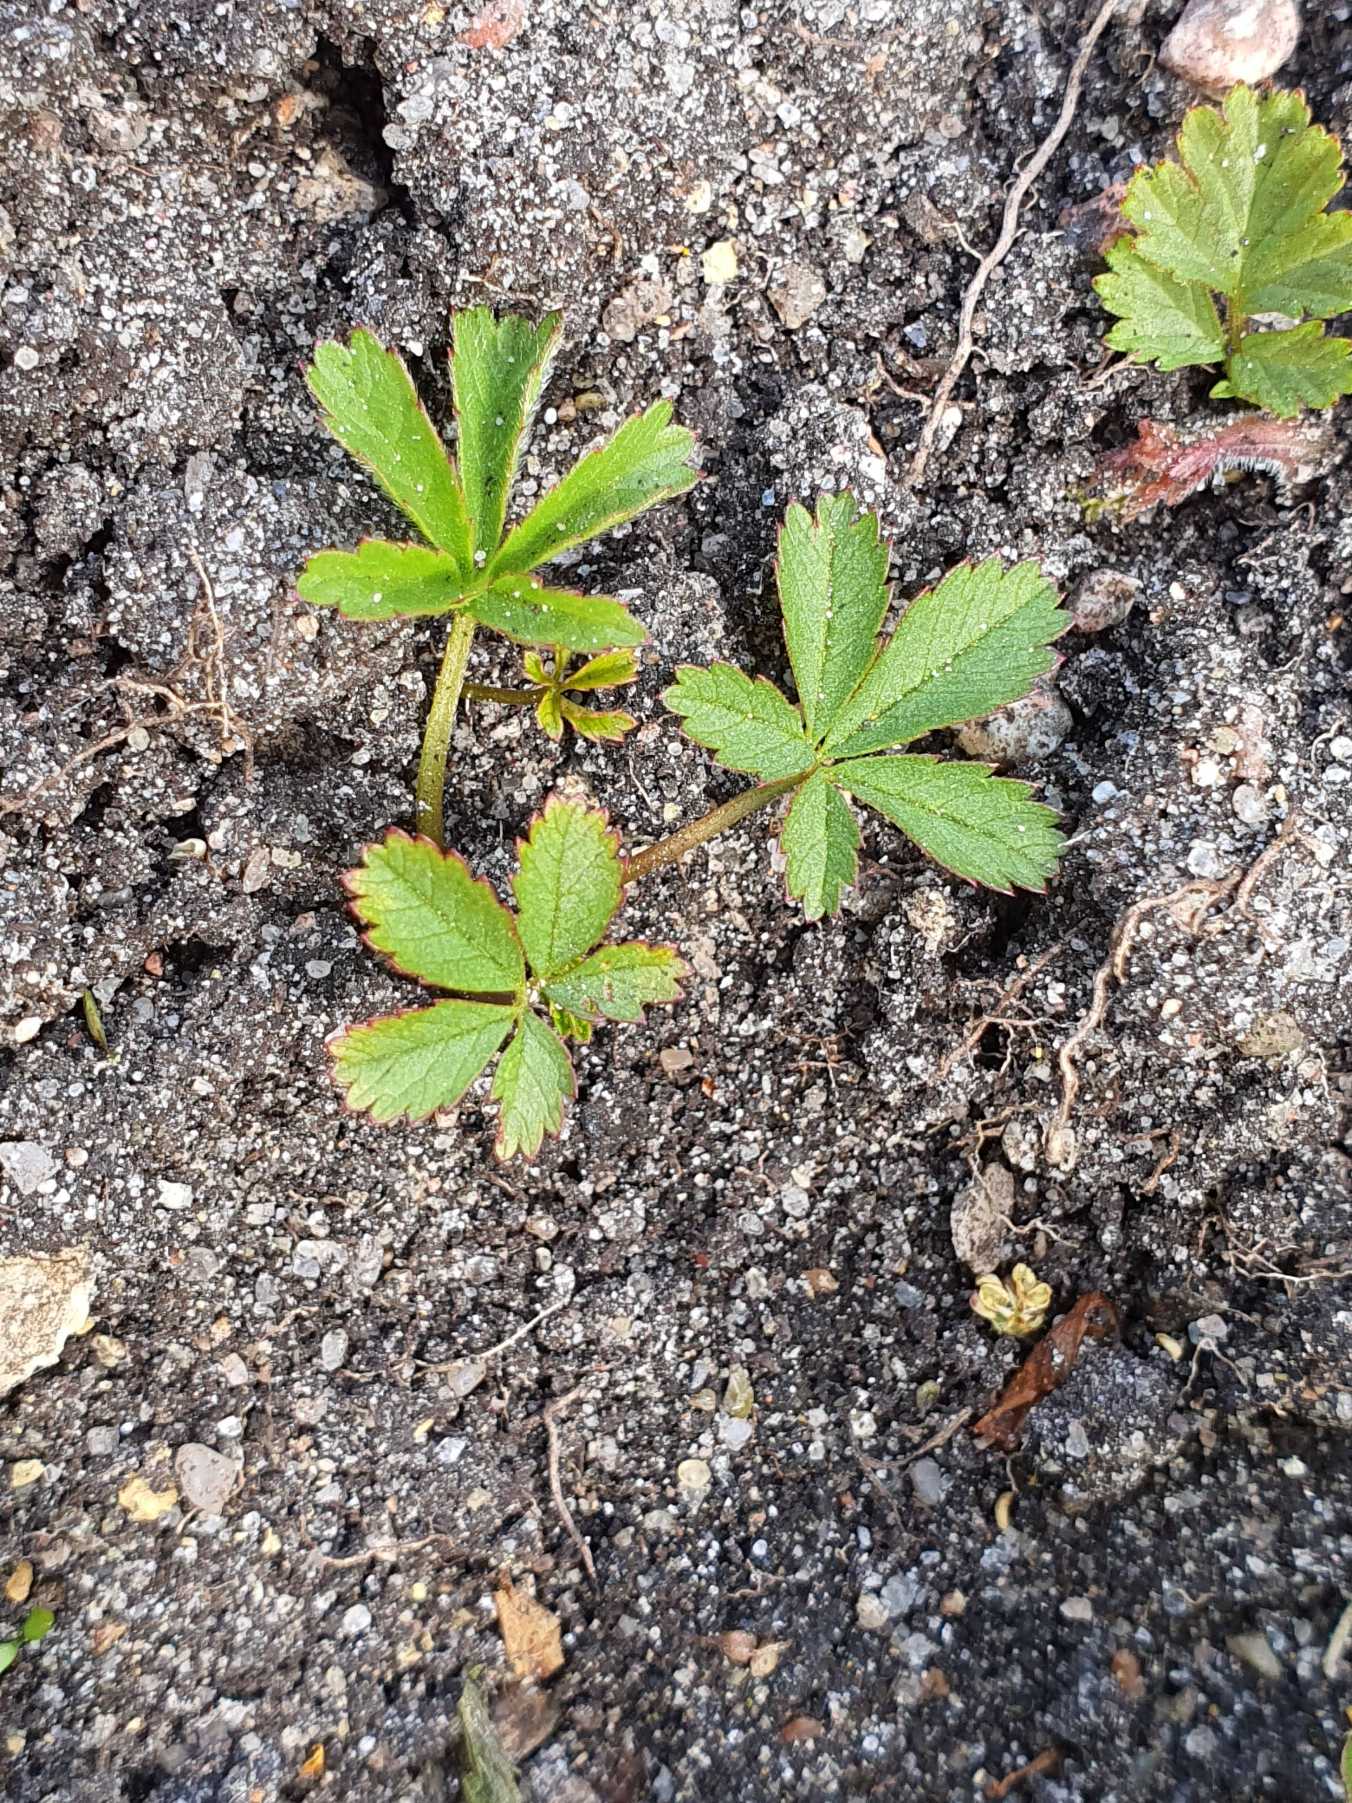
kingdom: Plantae
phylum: Tracheophyta
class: Magnoliopsida
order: Rosales
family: Rosaceae
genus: Potentilla
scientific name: Potentilla reptans
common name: Krybende potentil
